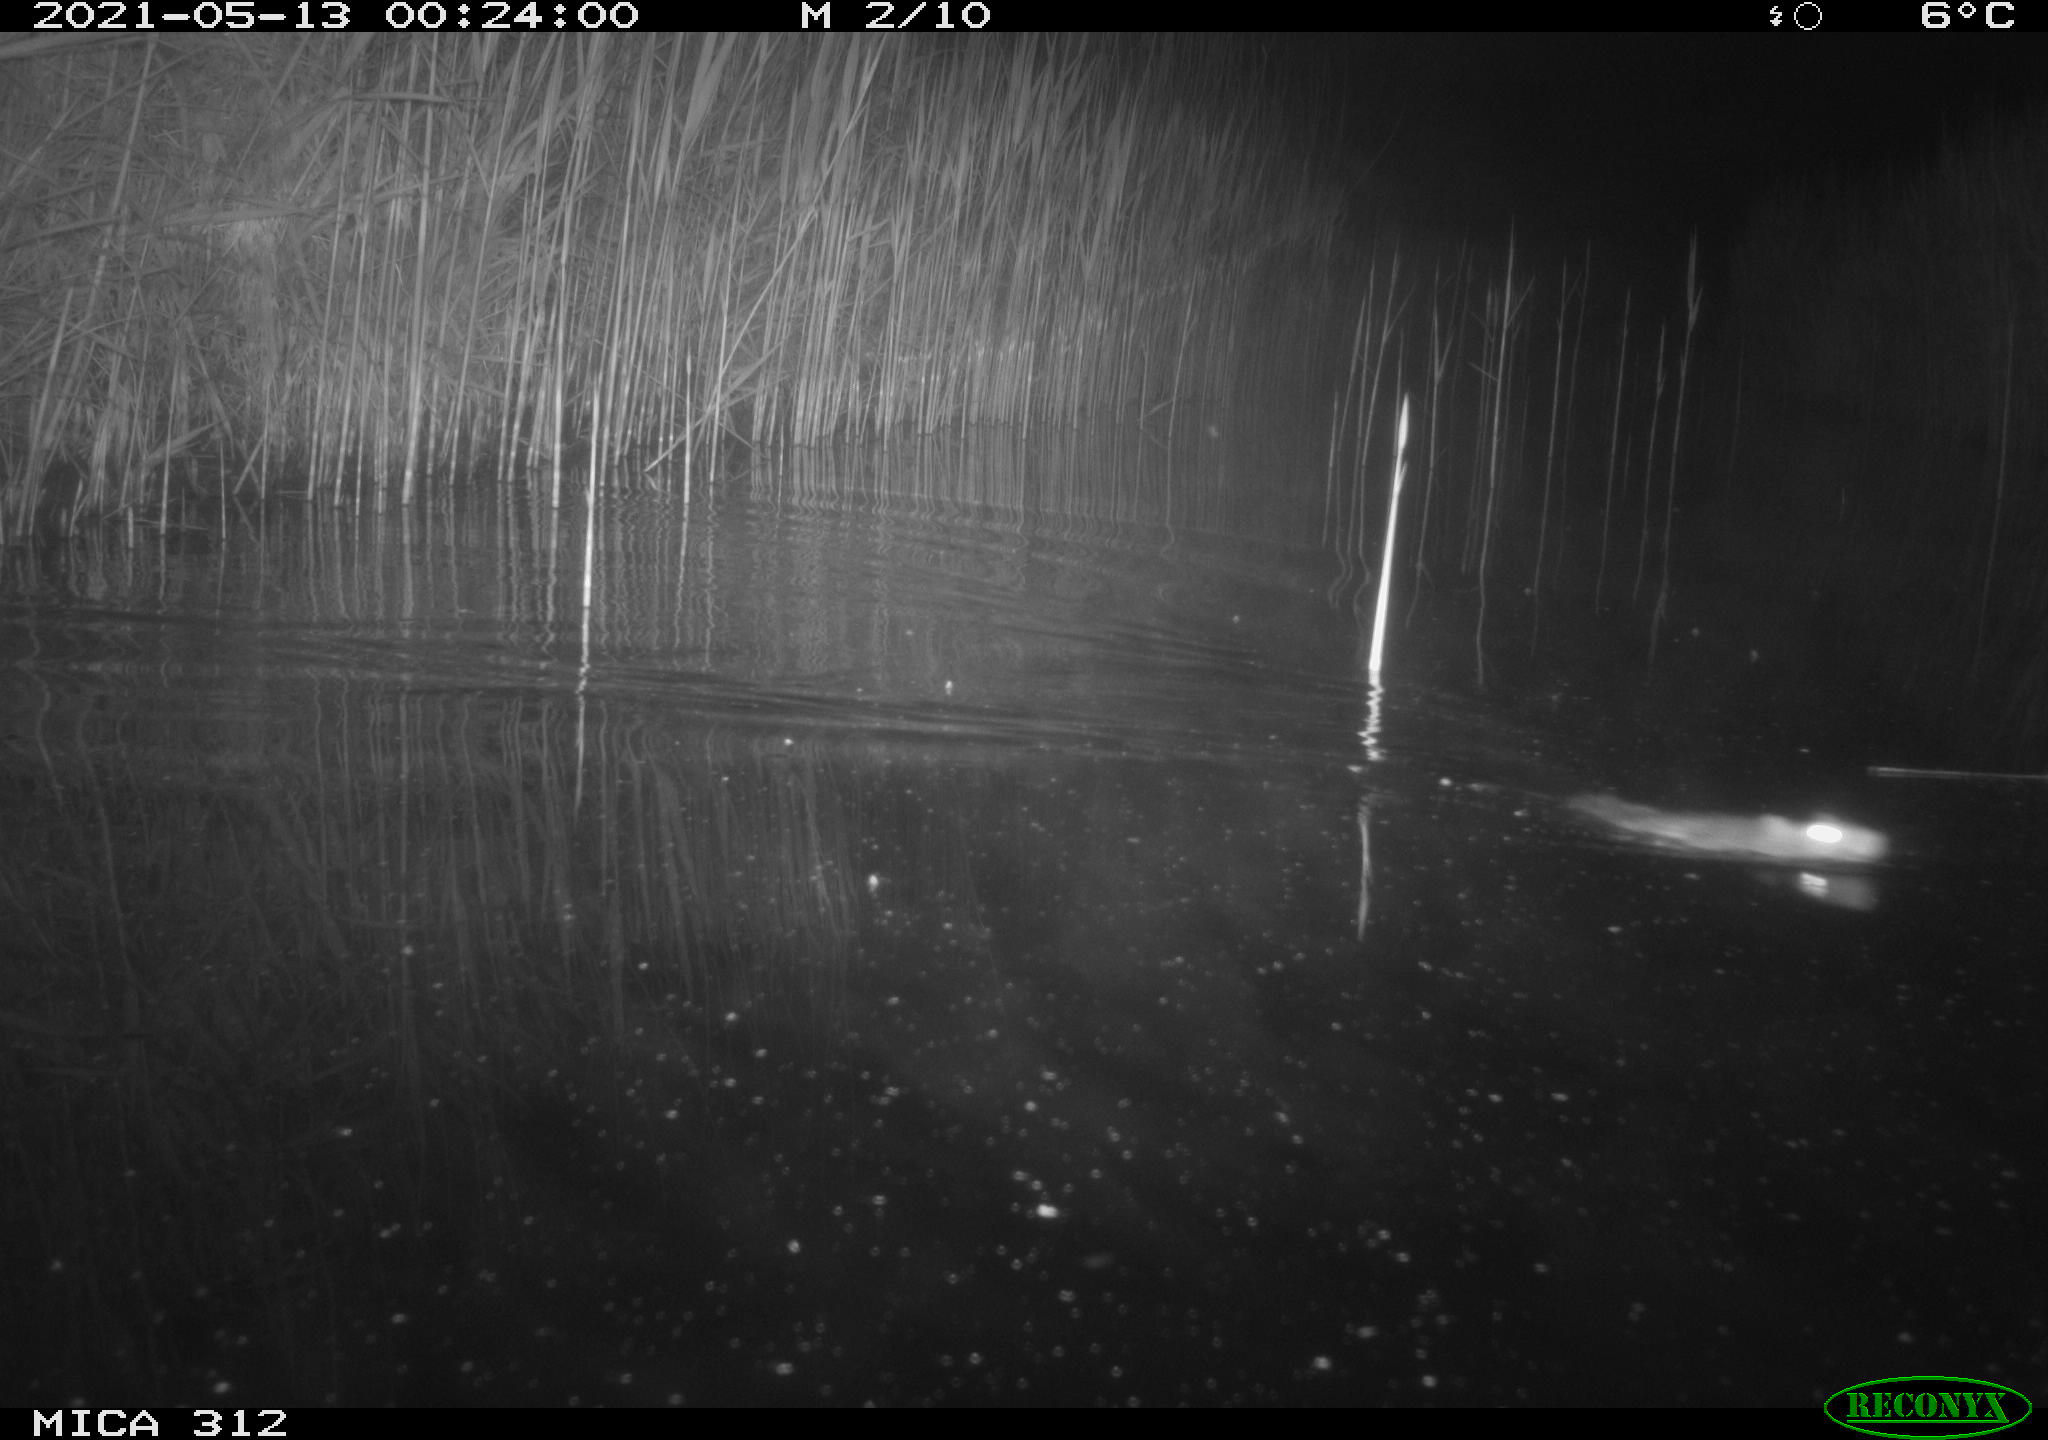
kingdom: Animalia
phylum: Chordata
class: Mammalia
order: Rodentia
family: Muridae
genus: Rattus
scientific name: Rattus norvegicus
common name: Brown rat
